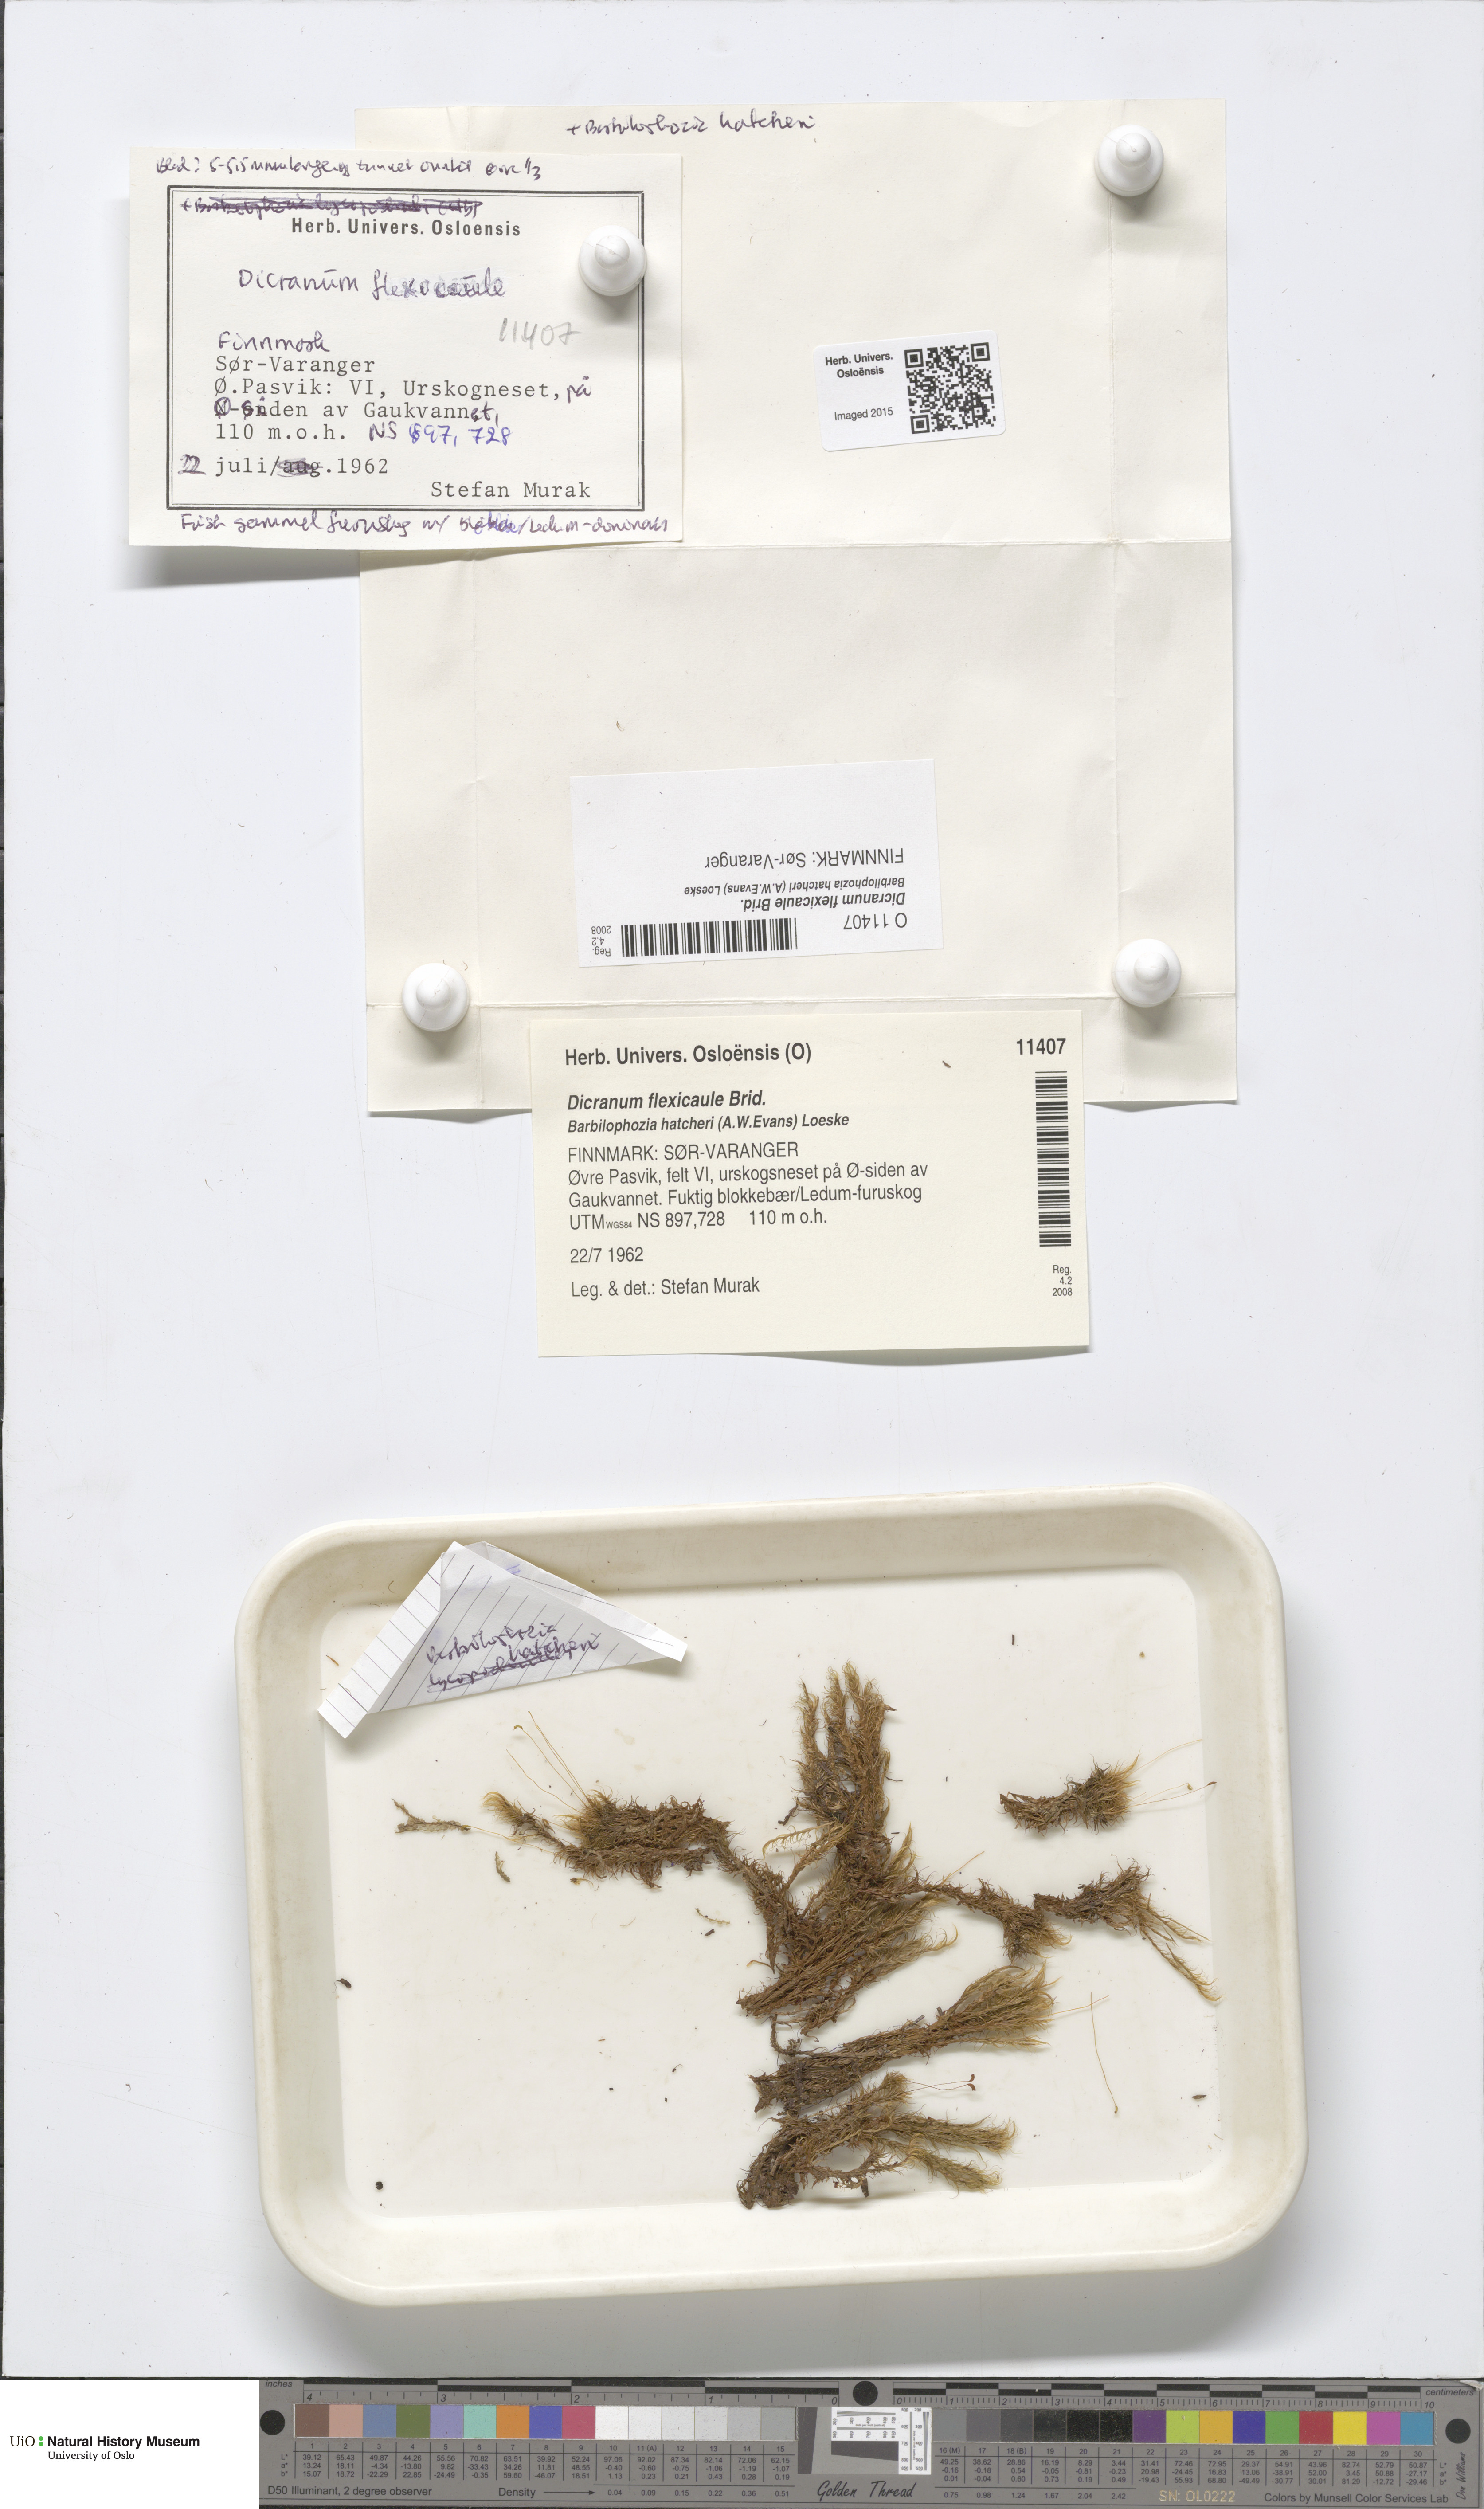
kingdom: Plantae
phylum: Bryophyta
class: Bryopsida
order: Dicranales
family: Dicranaceae
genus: Dicranum
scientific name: Dicranum flexicaule
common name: Bendy heron s-bill moss
